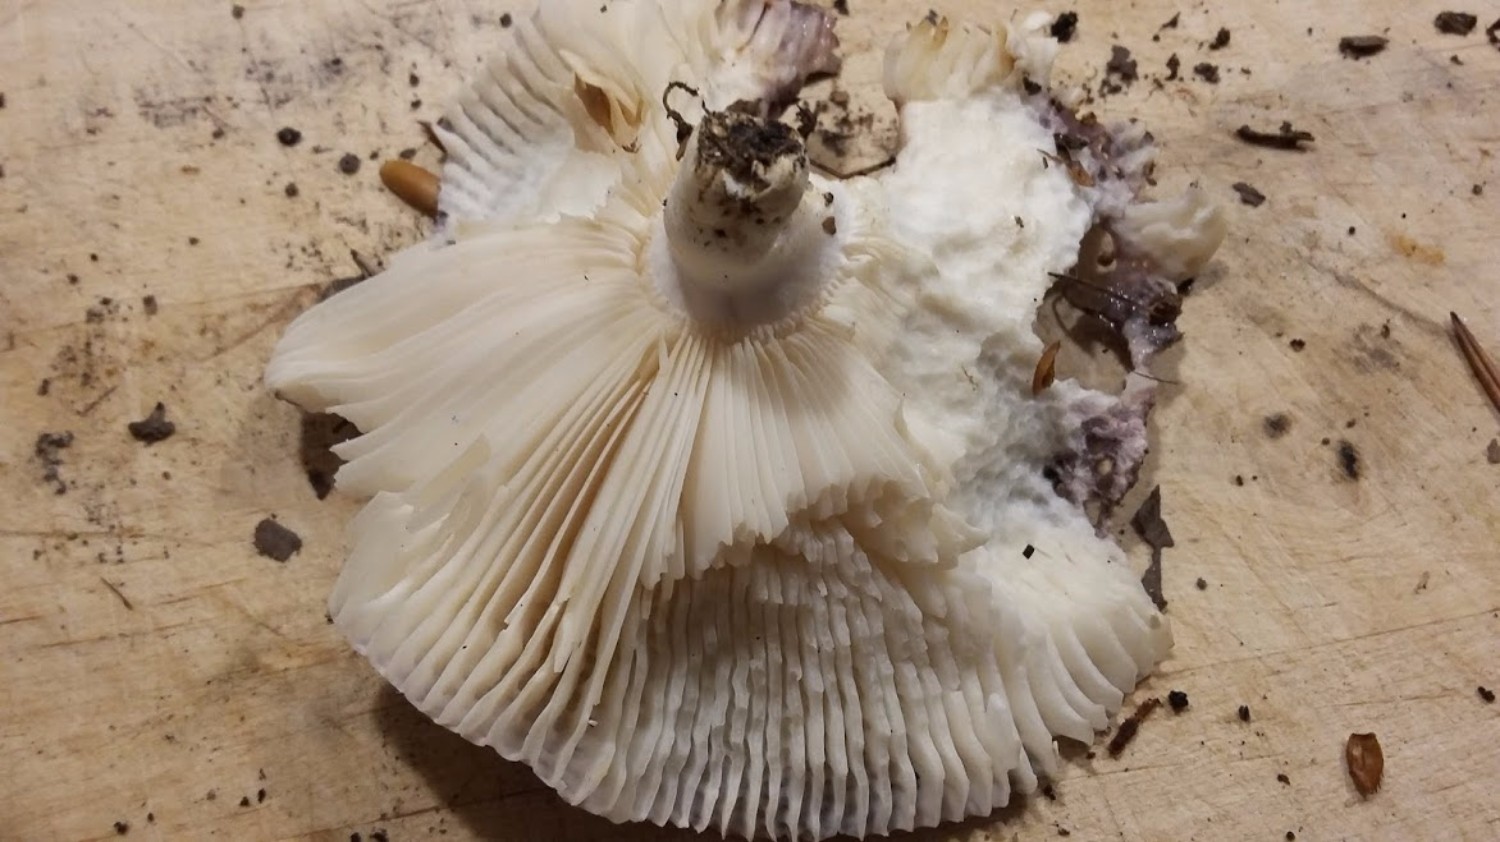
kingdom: Fungi
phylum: Basidiomycota
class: Agaricomycetes
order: Russulales
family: Russulaceae
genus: Russula
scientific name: Russula ionochlora
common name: violetgrøn skørhat
